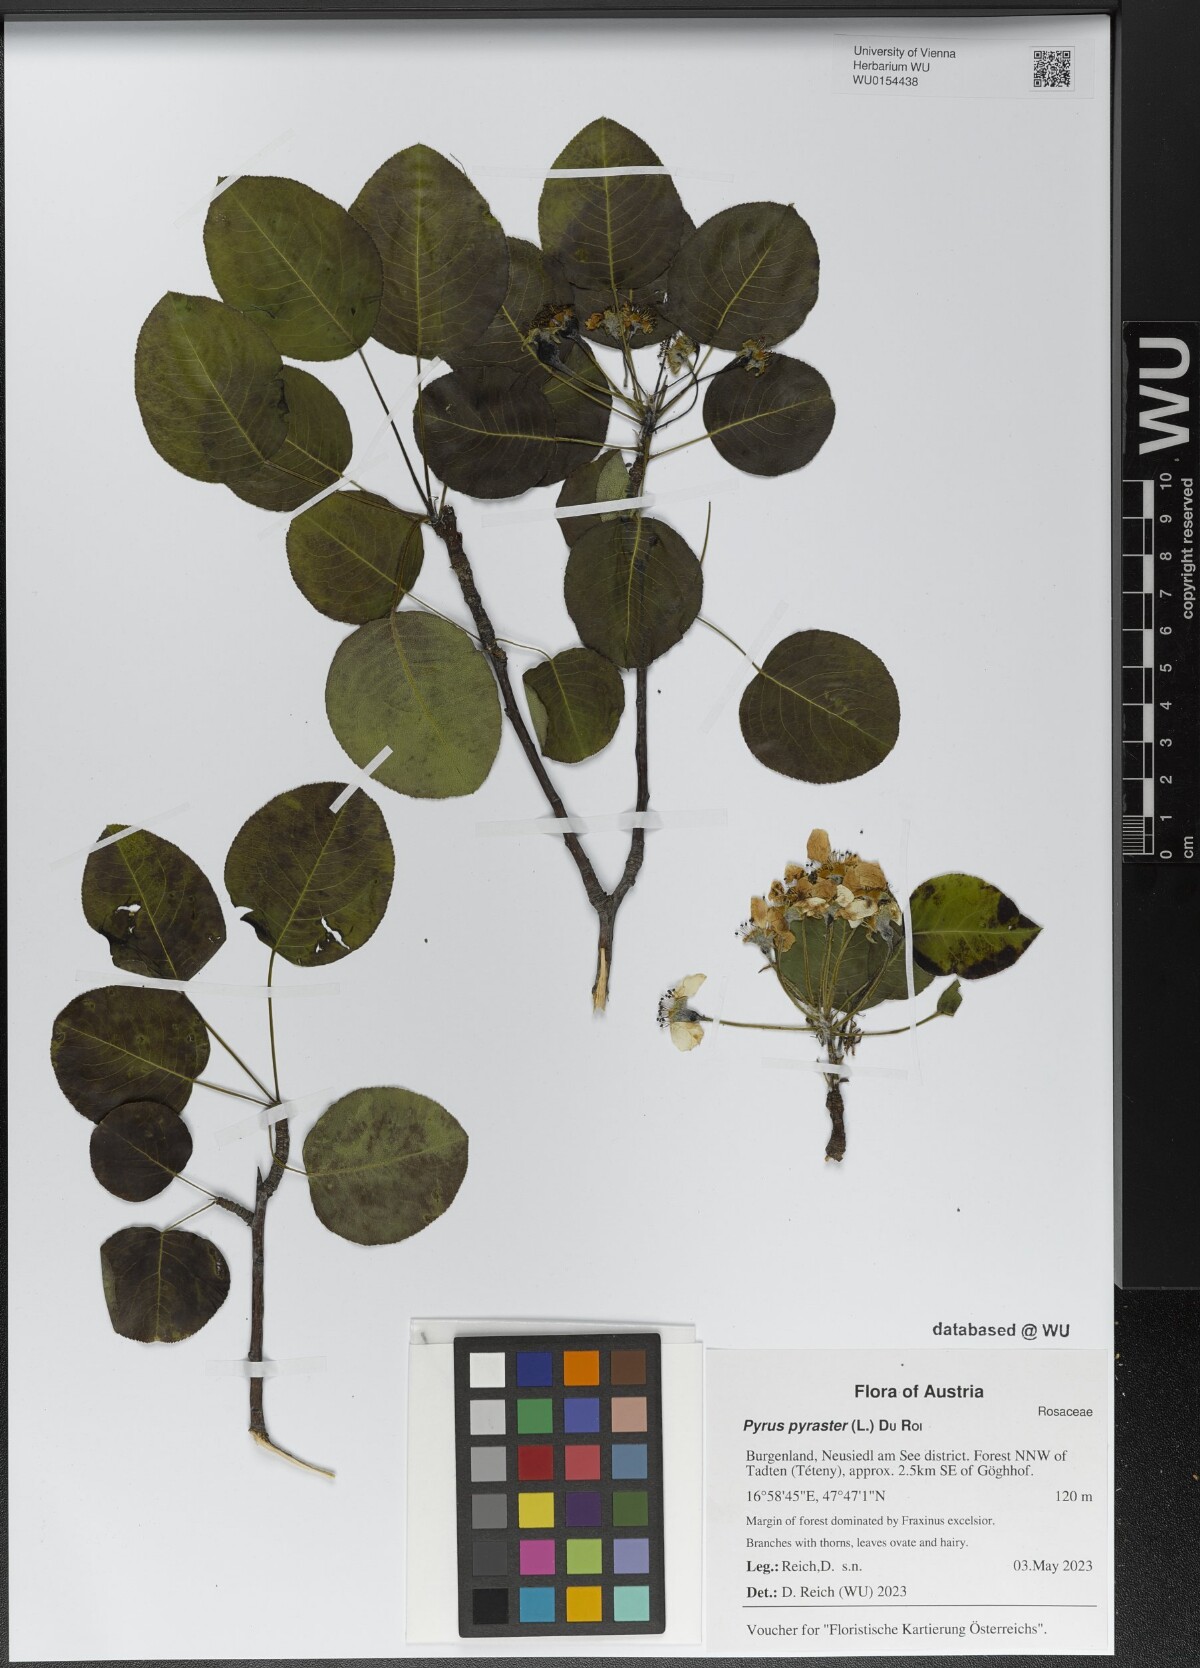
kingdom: Plantae
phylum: Tracheophyta
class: Magnoliopsida
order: Rosales
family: Rosaceae
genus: Pyrus
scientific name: Pyrus pyraster
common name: Wild pear
